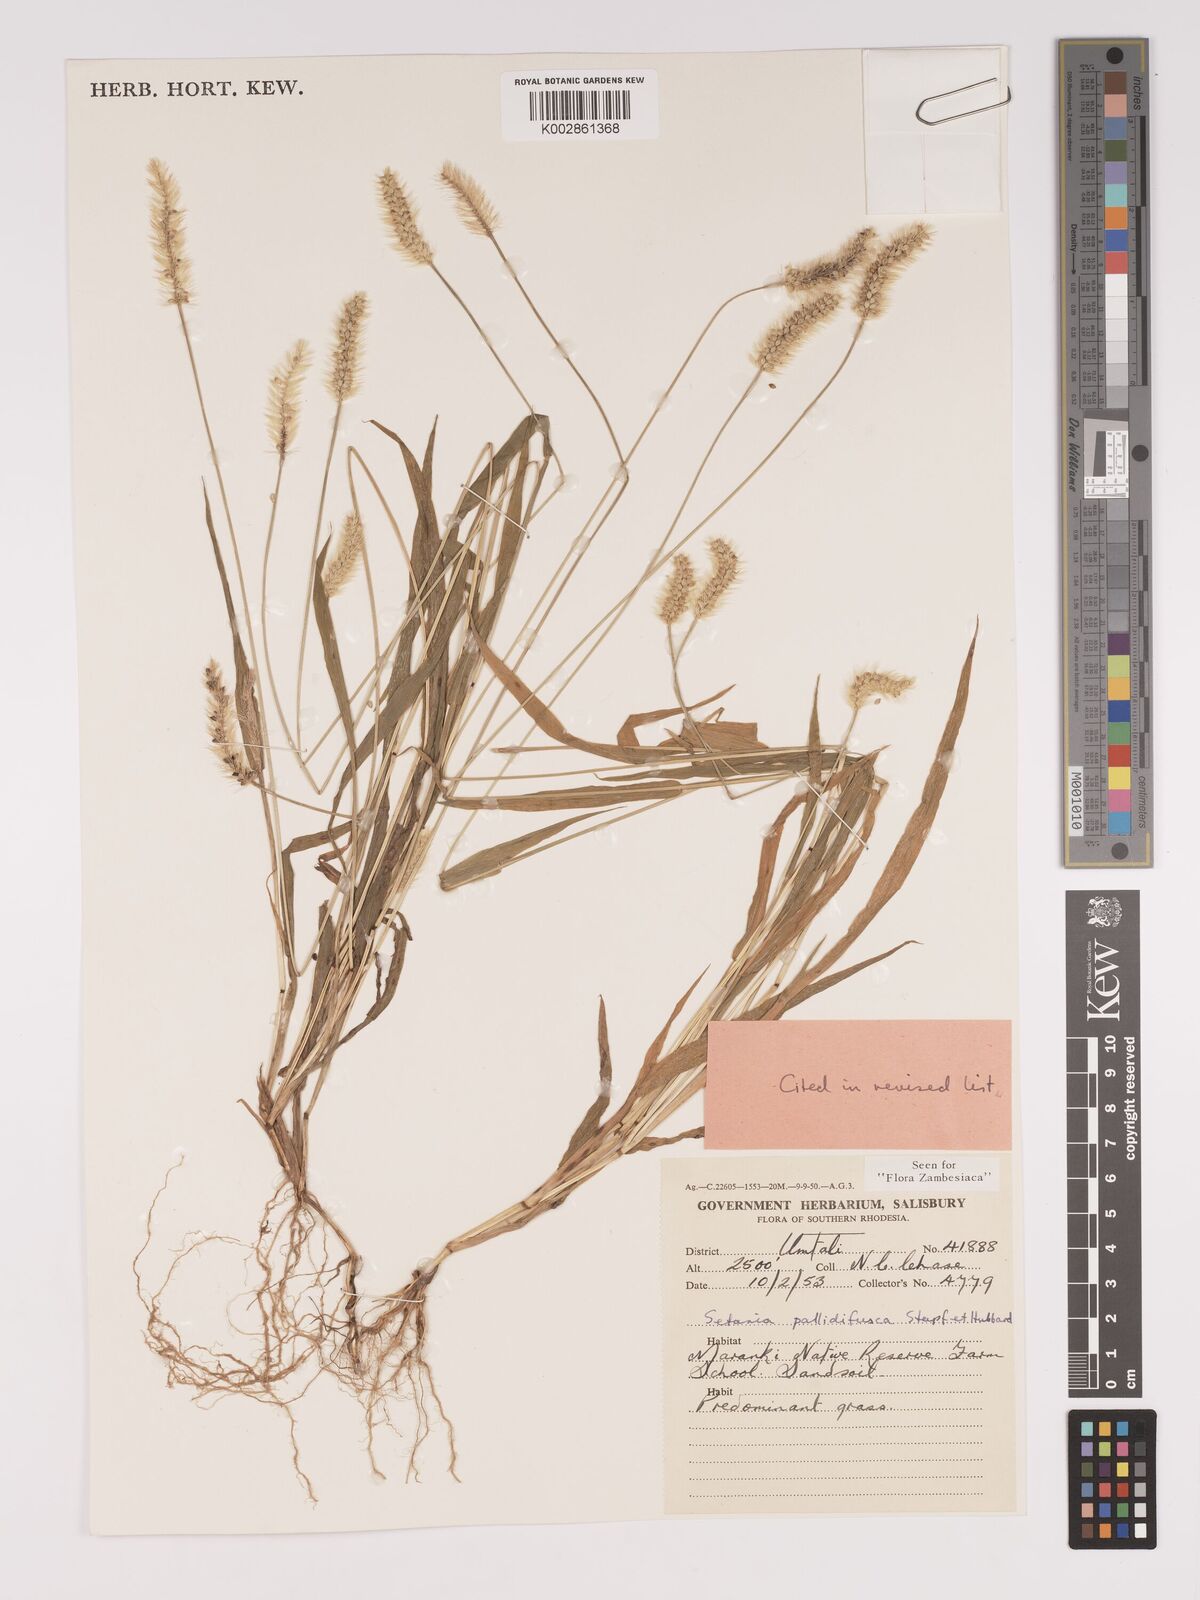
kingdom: Plantae
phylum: Tracheophyta
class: Liliopsida
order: Poales
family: Poaceae
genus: Setaria
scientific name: Setaria pumila
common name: Yellow bristle-grass
